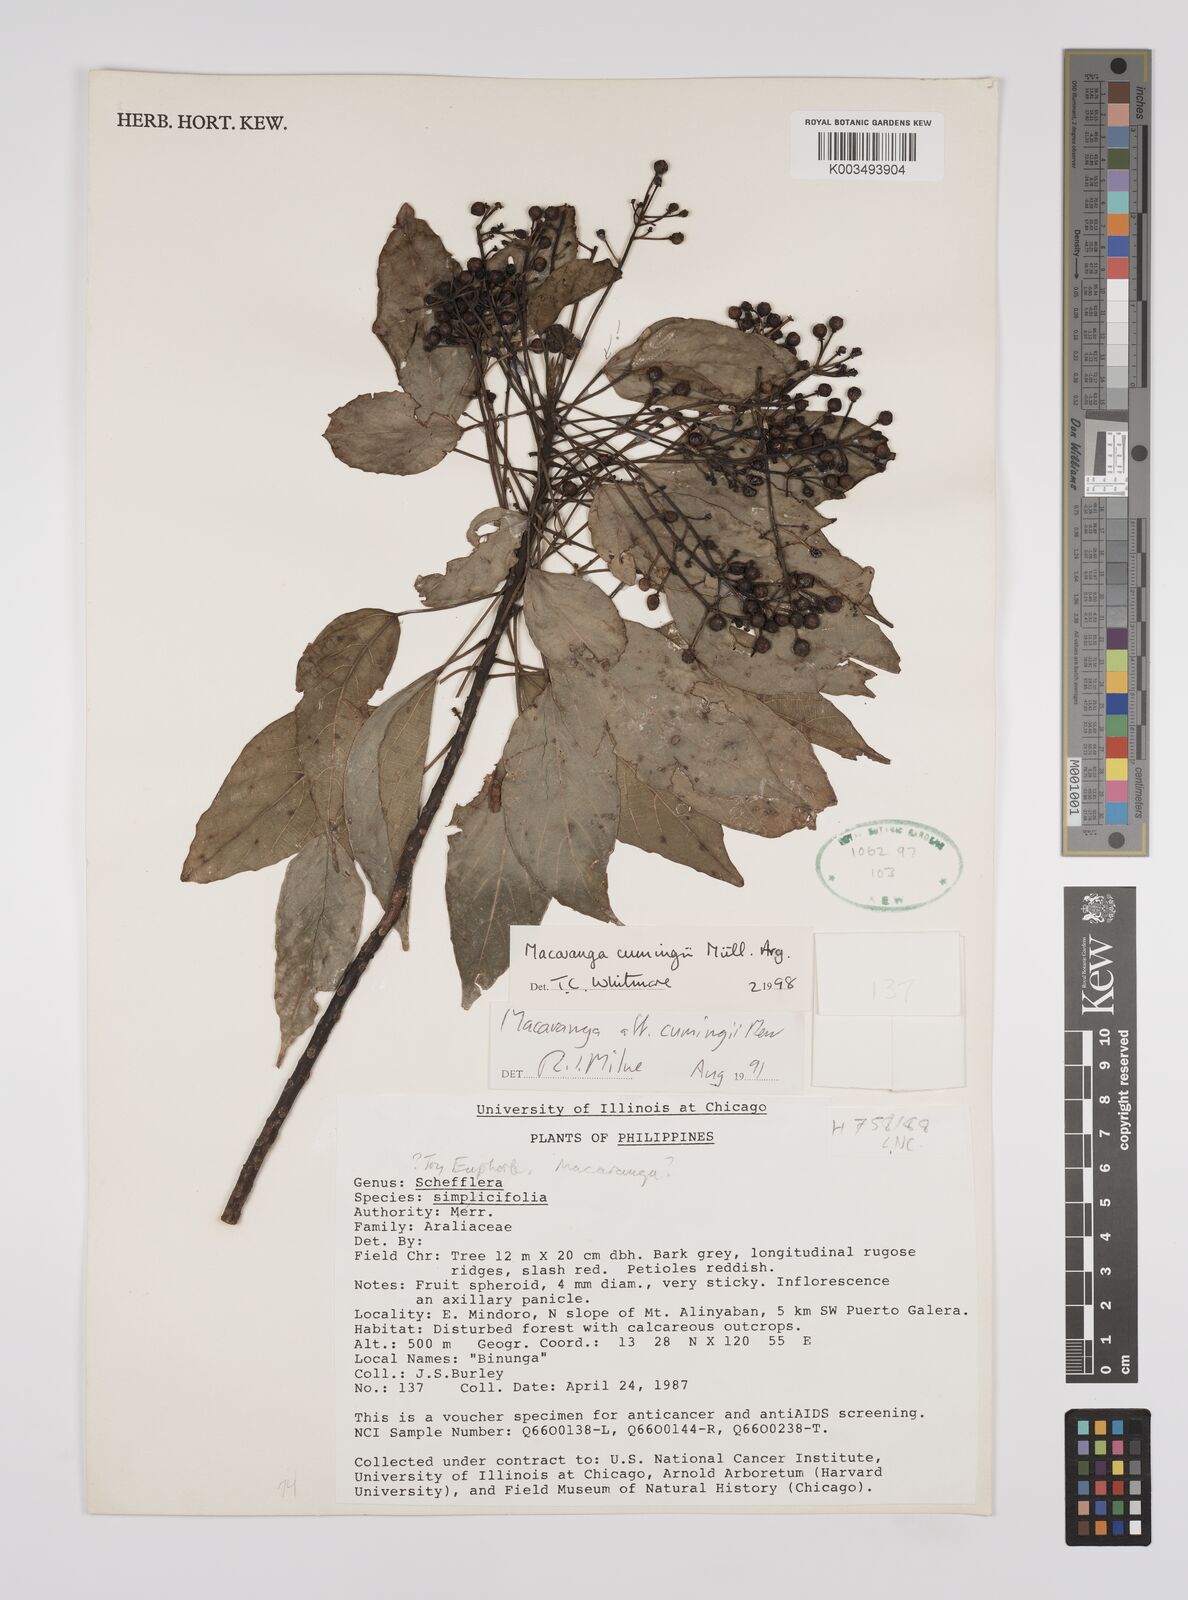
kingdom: Plantae
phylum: Tracheophyta
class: Magnoliopsida
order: Malpighiales
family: Euphorbiaceae
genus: Macaranga
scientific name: Macaranga cumingii
